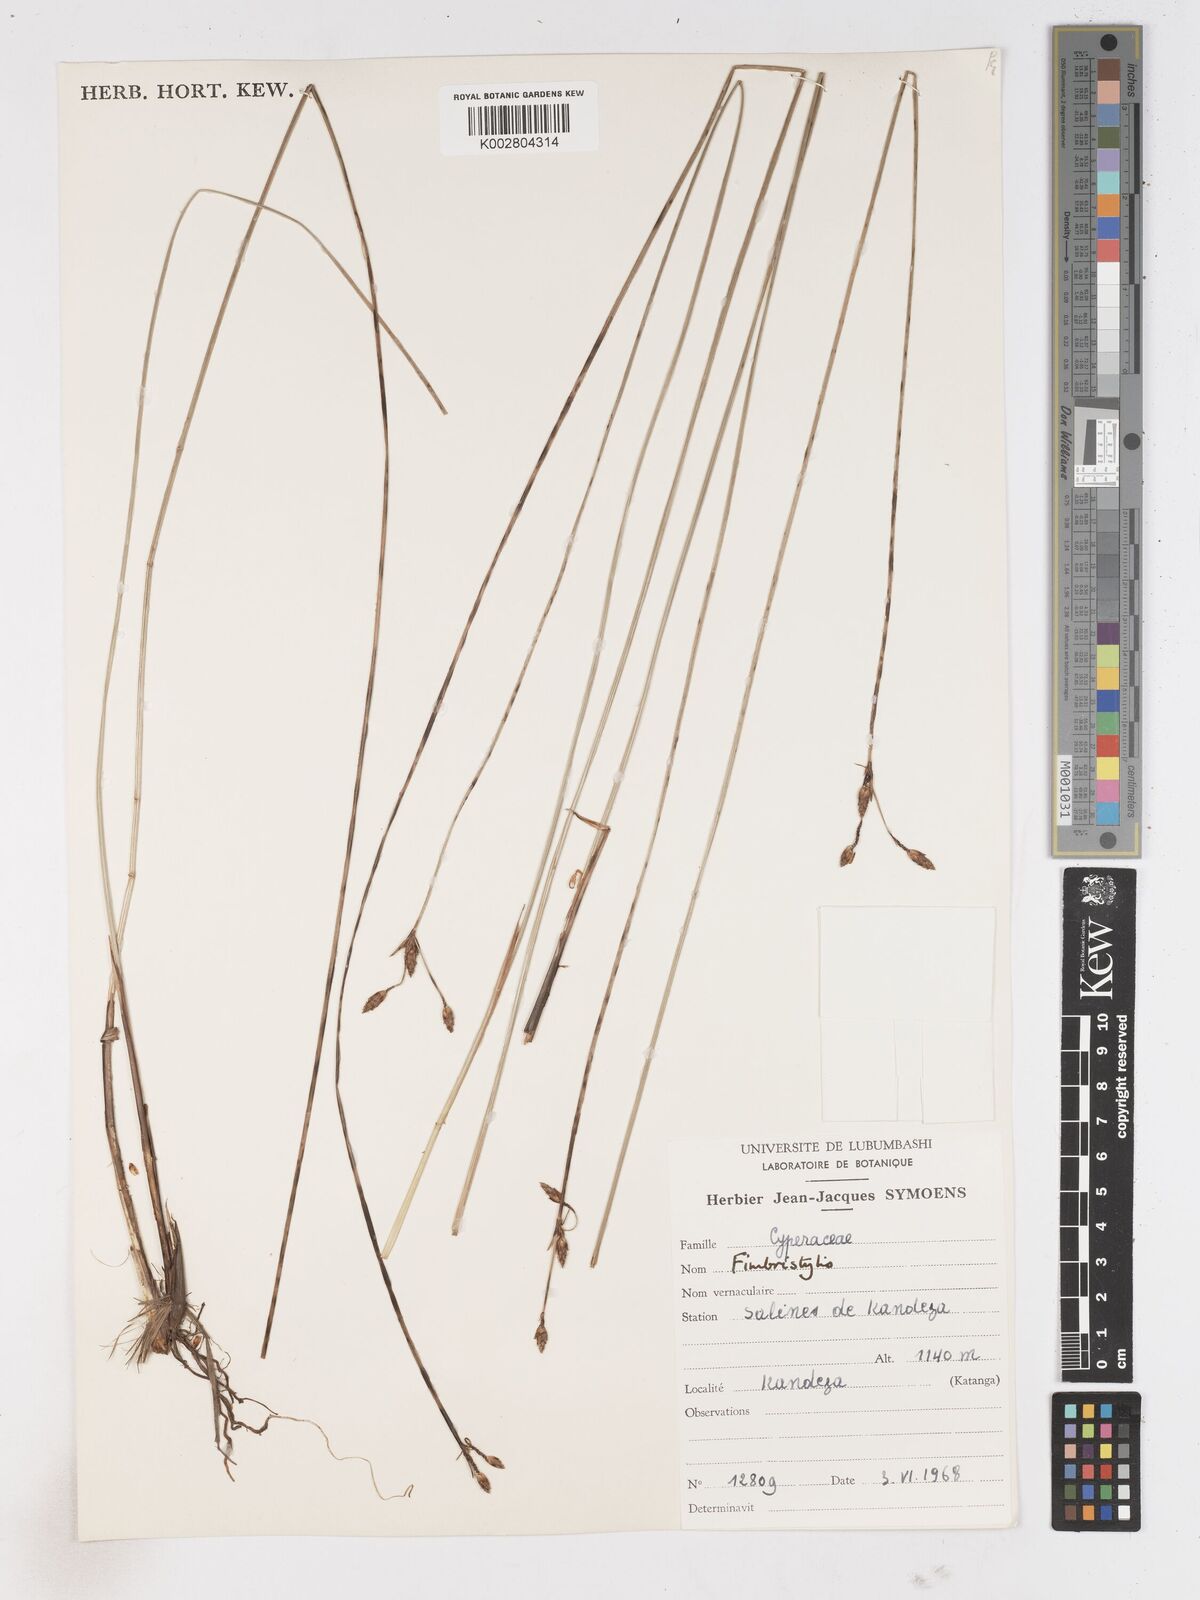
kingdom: Plantae
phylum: Tracheophyta
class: Liliopsida
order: Poales
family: Cyperaceae
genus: Fimbristylis
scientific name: Fimbristylis
